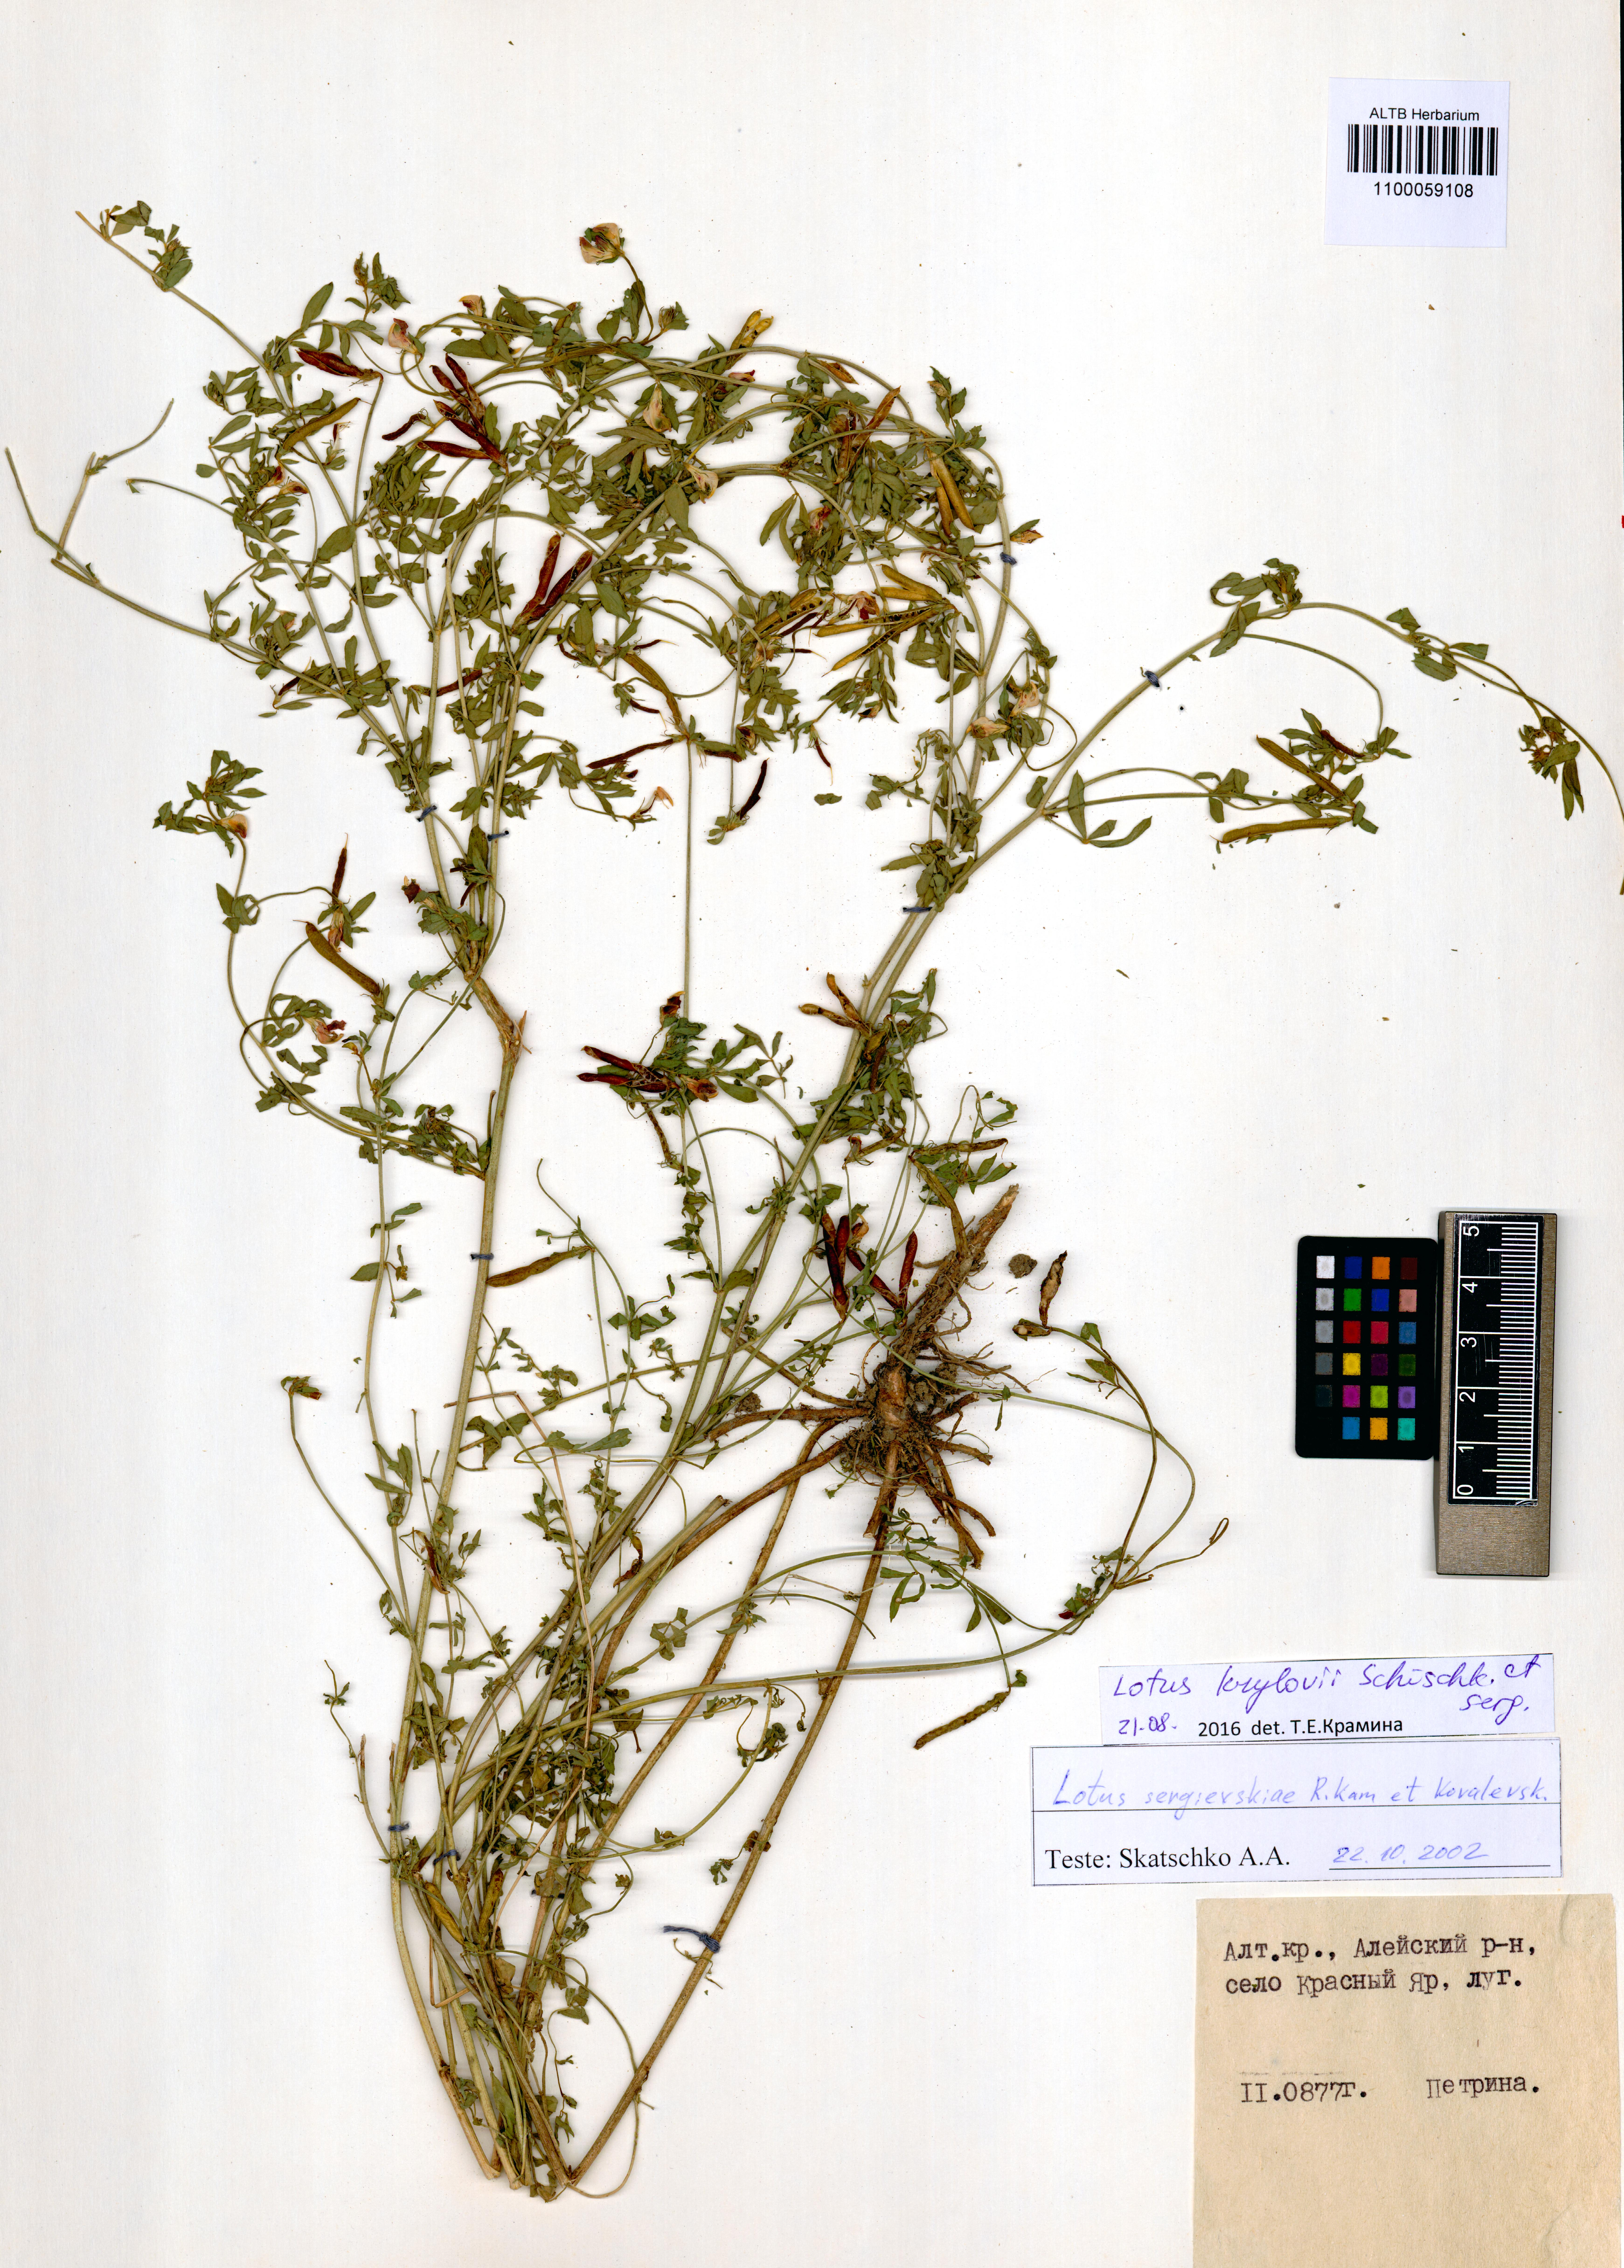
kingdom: Plantae
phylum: Tracheophyta
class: Magnoliopsida
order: Fabales
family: Fabaceae
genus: Lotus
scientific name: Lotus krylovii
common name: Krylov's bird's-foot trefoil
